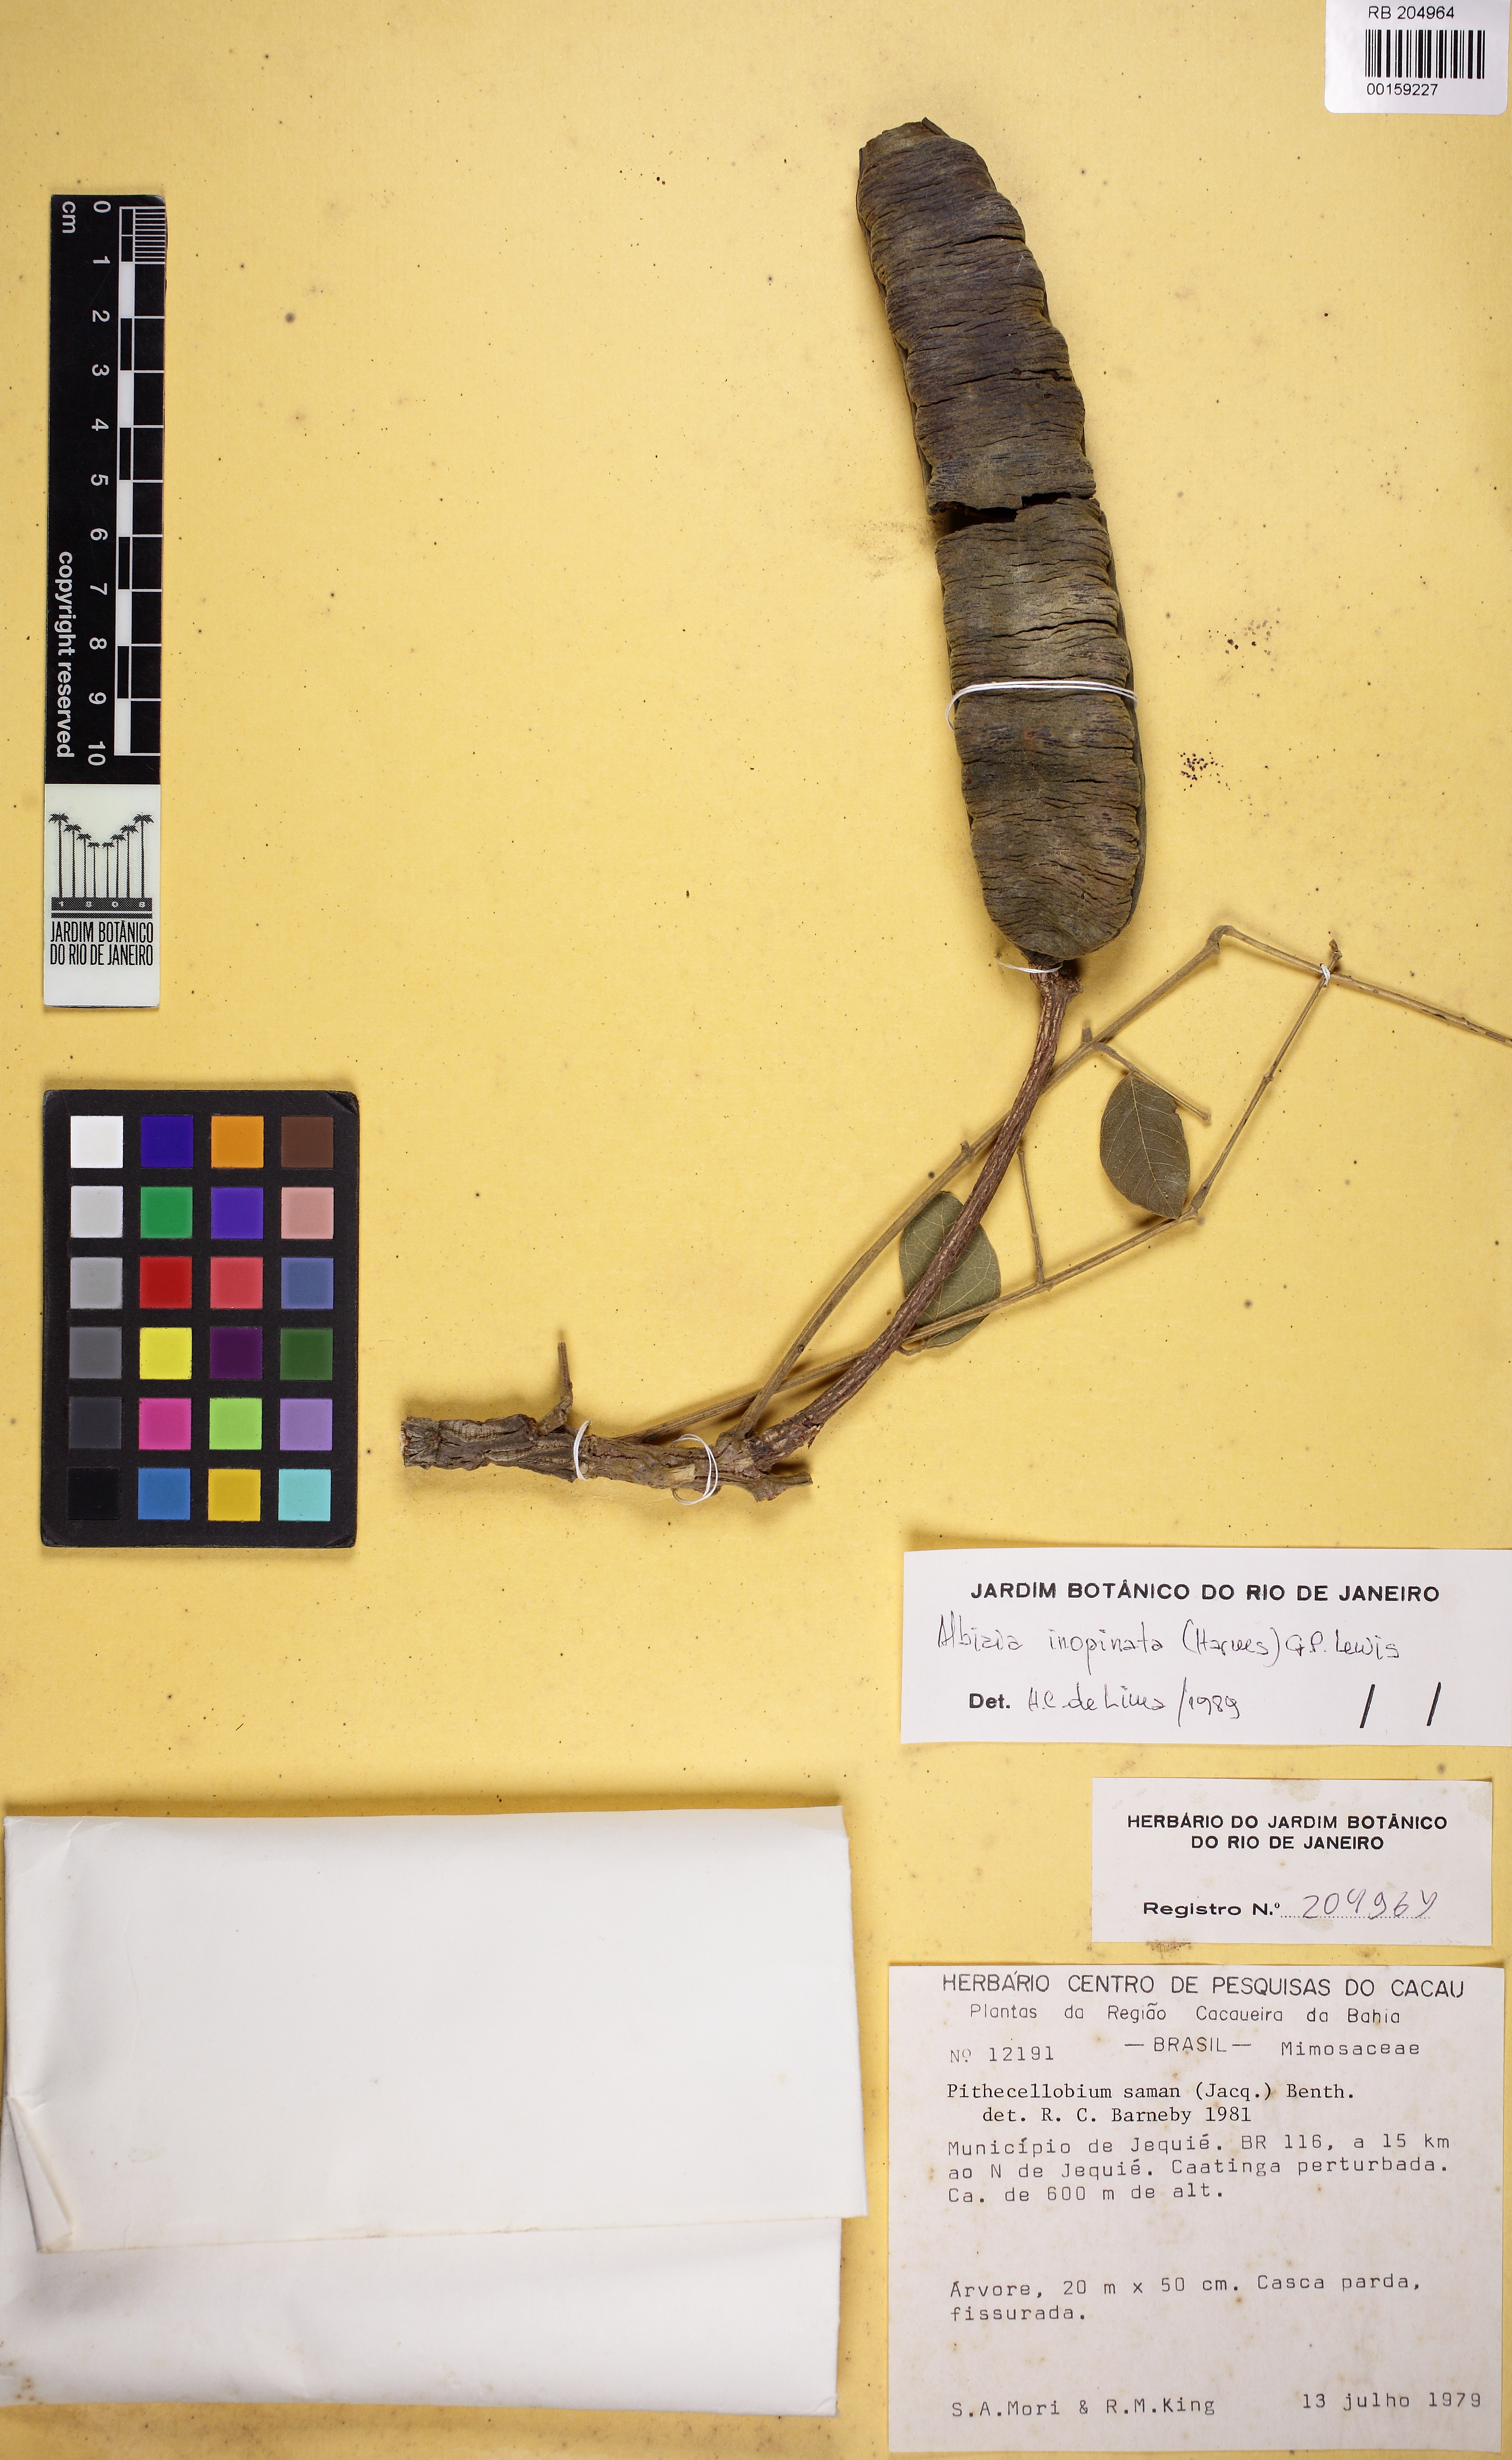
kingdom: Plantae
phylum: Tracheophyta
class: Magnoliopsida
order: Fabales
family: Fabaceae
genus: Samanea
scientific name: Samanea inopinata
